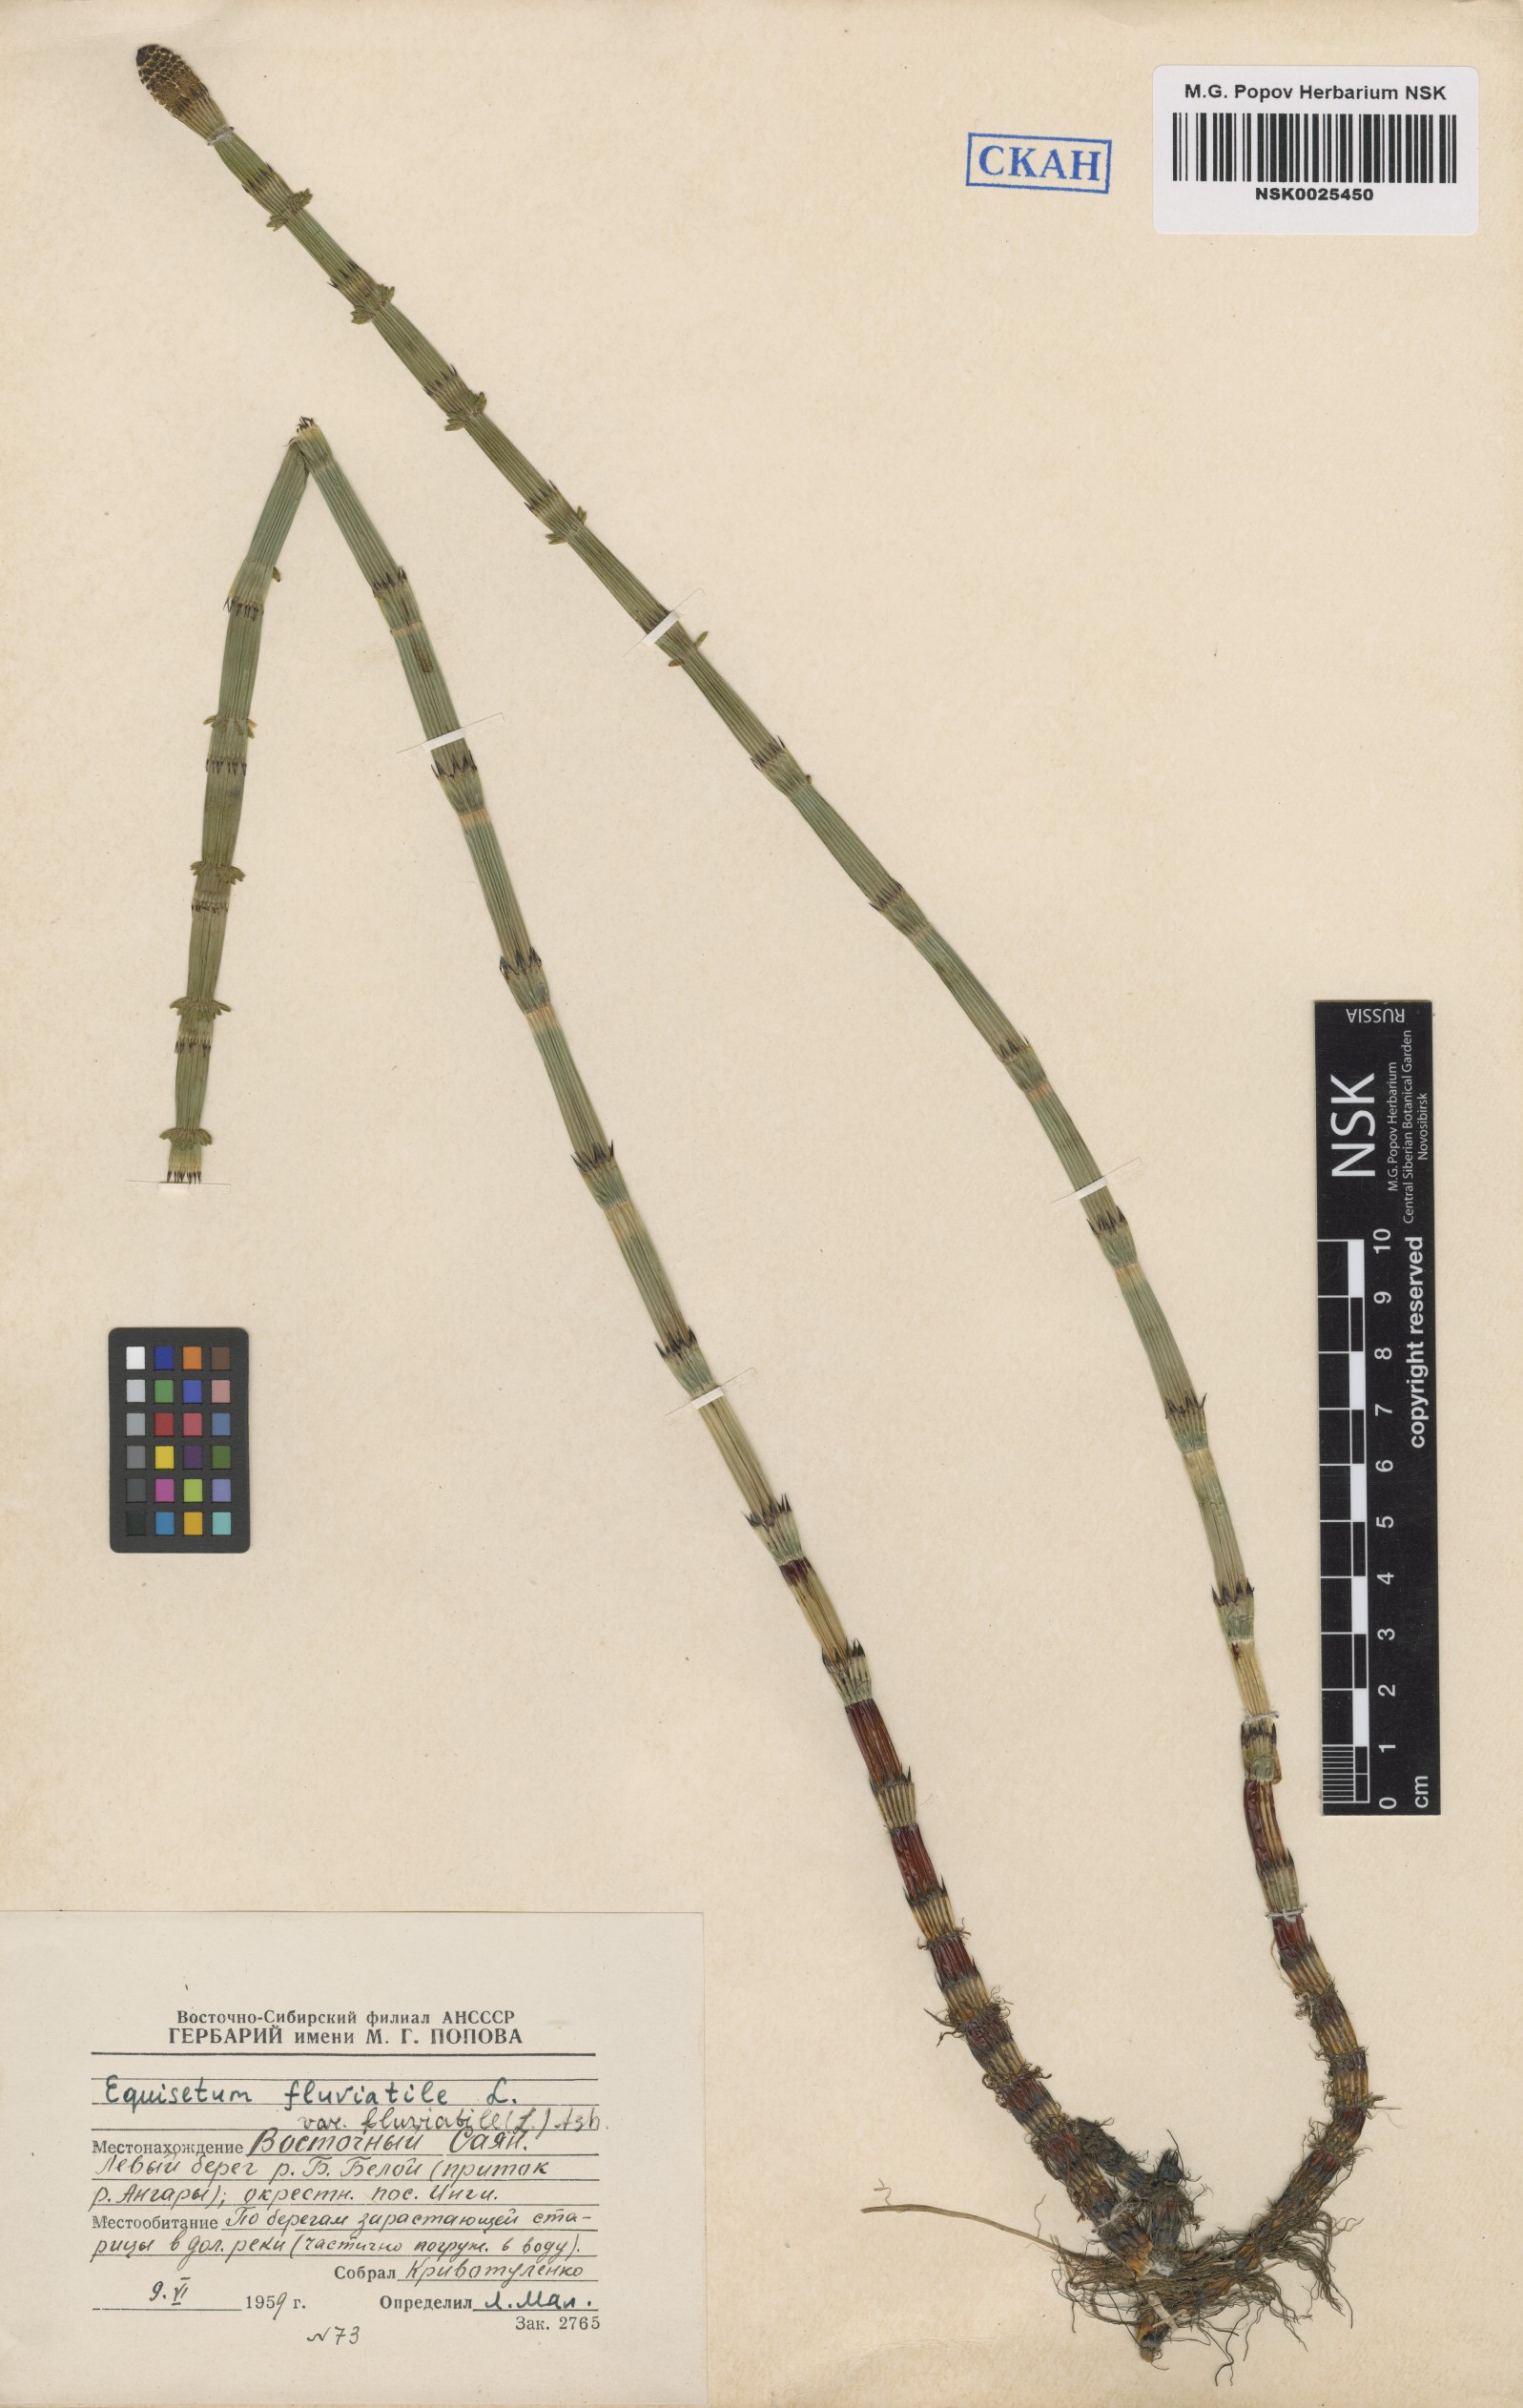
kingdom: Plantae
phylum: Tracheophyta
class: Polypodiopsida
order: Equisetales
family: Equisetaceae
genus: Equisetum
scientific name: Equisetum fluviatile
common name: Water horsetail
